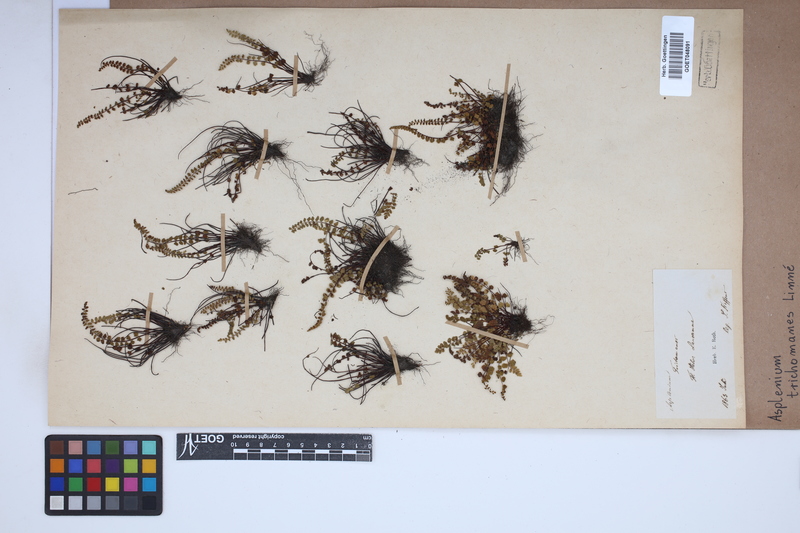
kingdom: Plantae
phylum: Tracheophyta
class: Polypodiopsida
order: Polypodiales
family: Aspleniaceae
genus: Asplenium
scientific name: Asplenium trichomanes
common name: Maidenhair spleenwort
